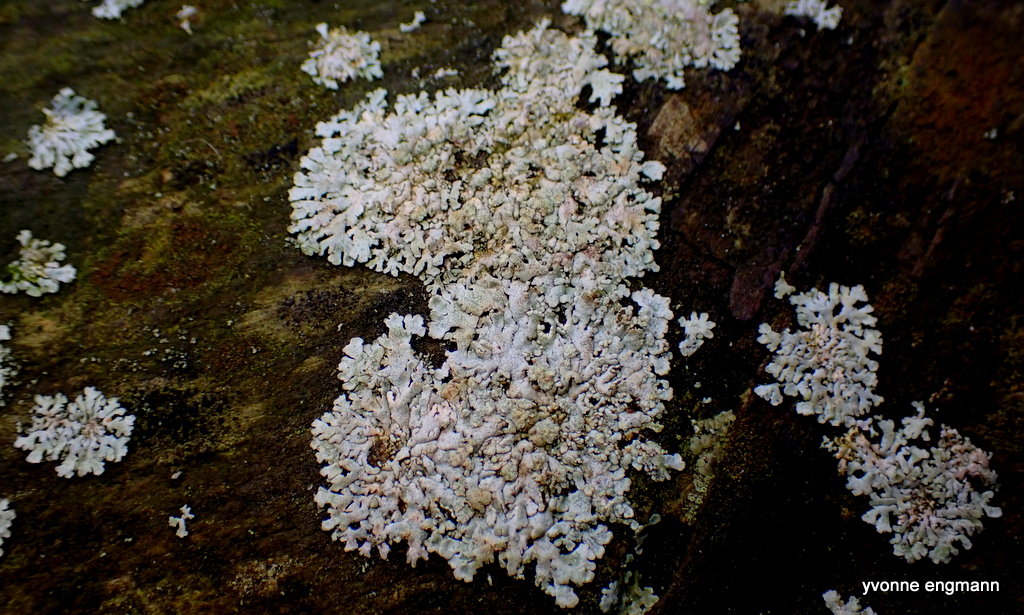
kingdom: Fungi
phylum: Ascomycota
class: Lecanoromycetes
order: Caliciales
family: Physciaceae
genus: Physcia
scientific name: Physcia caesia
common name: blågrå rosetlav
